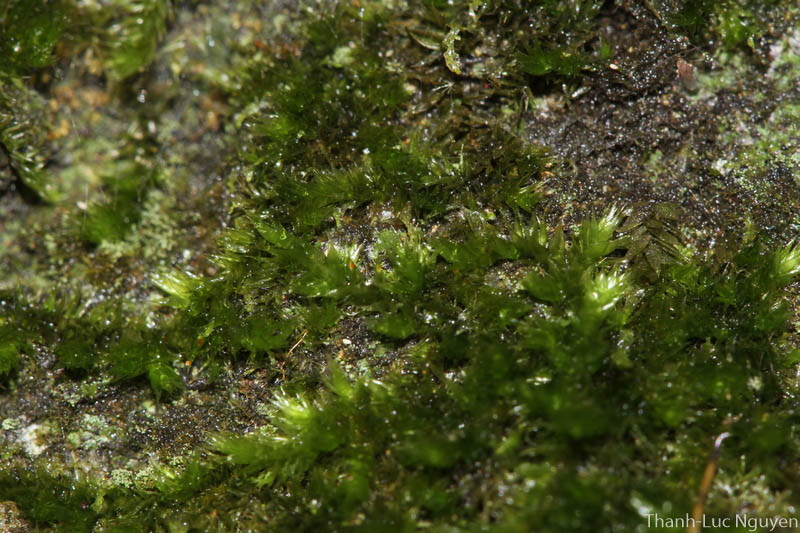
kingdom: Plantae
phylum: Bryophyta
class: Bryopsida
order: Hypnales
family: Sematophyllaceae
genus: Sematophyllum
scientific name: Sematophyllum subhumile
